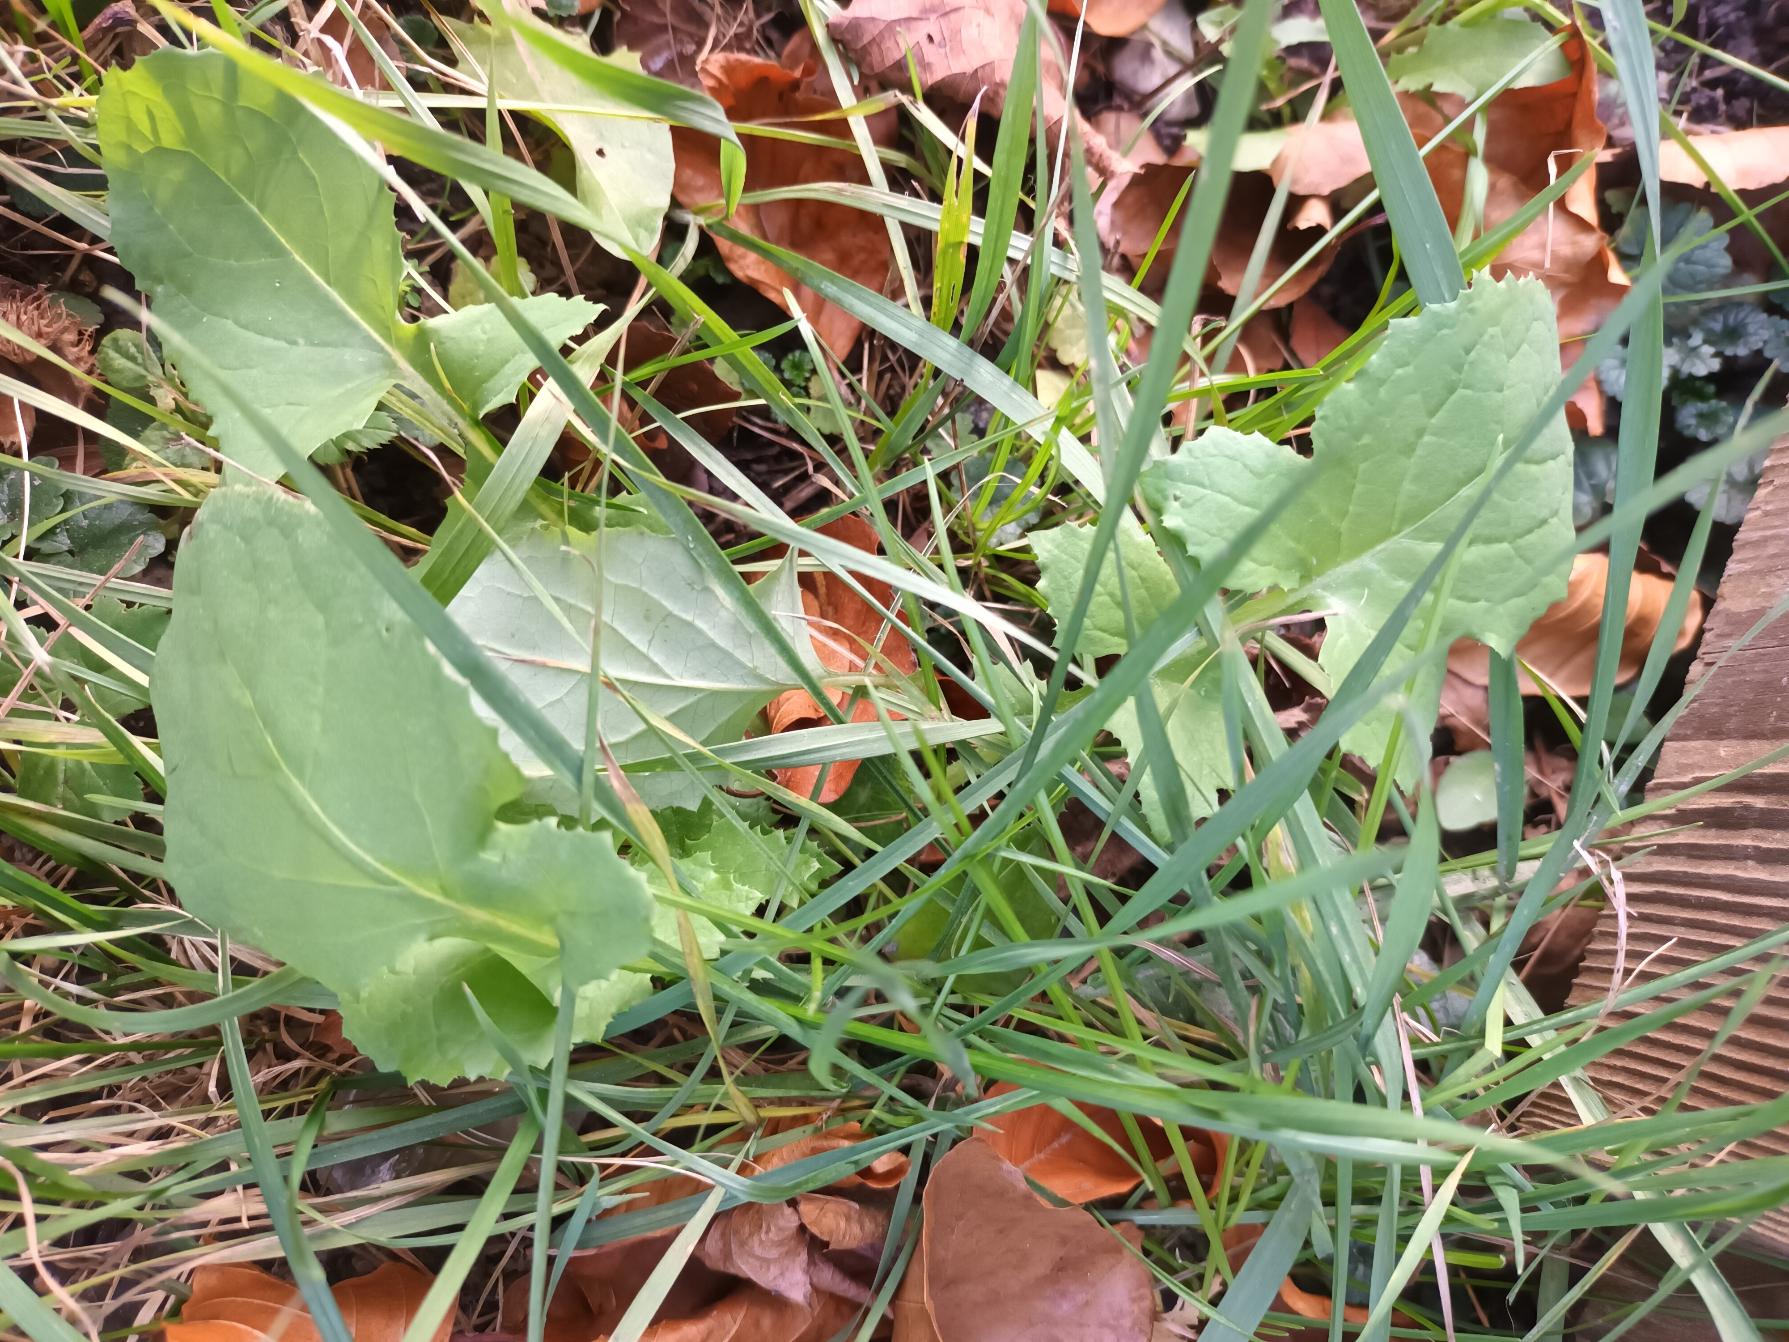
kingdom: Plantae
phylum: Tracheophyta
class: Magnoliopsida
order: Asterales
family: Asteraceae
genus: Sonchus
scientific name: Sonchus oleraceus
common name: Almindelig svinemælk
